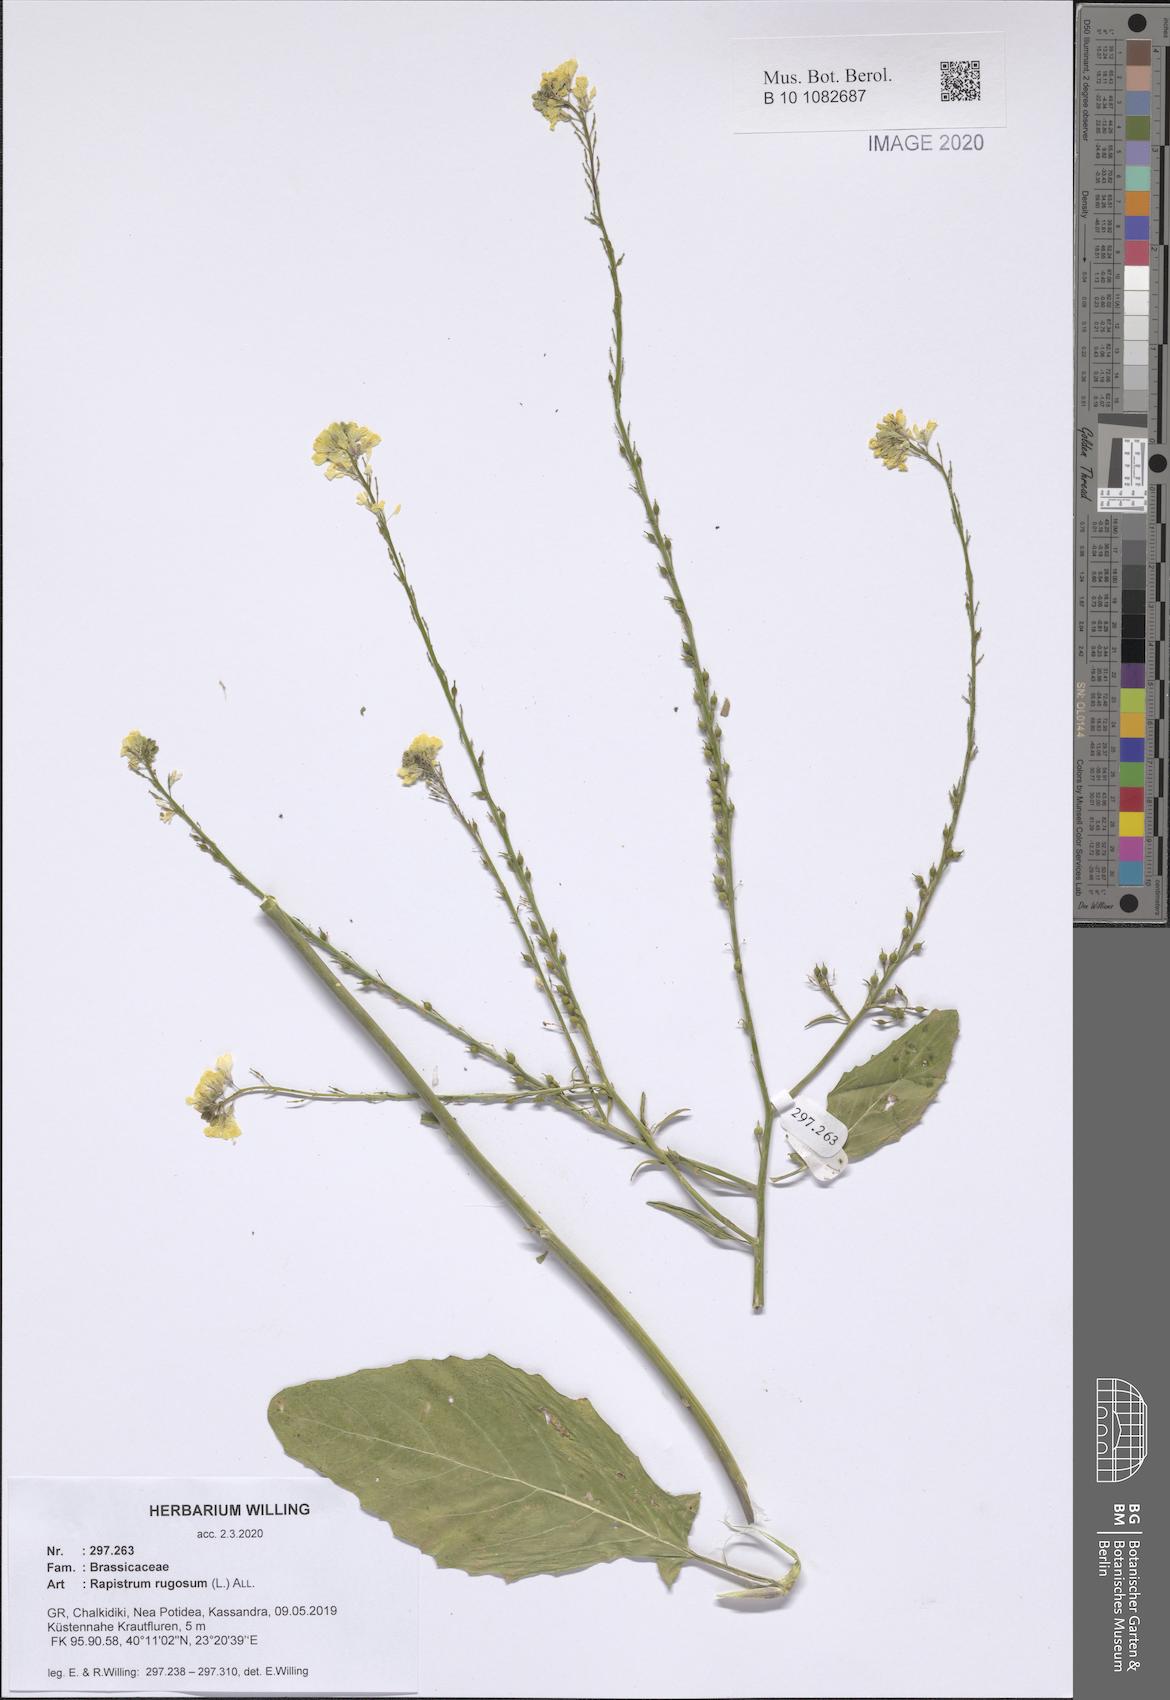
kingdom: Plantae
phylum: Tracheophyta
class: Magnoliopsida
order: Brassicales
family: Brassicaceae
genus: Rapistrum
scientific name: Rapistrum rugosum
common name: Annual bastardcabbage
